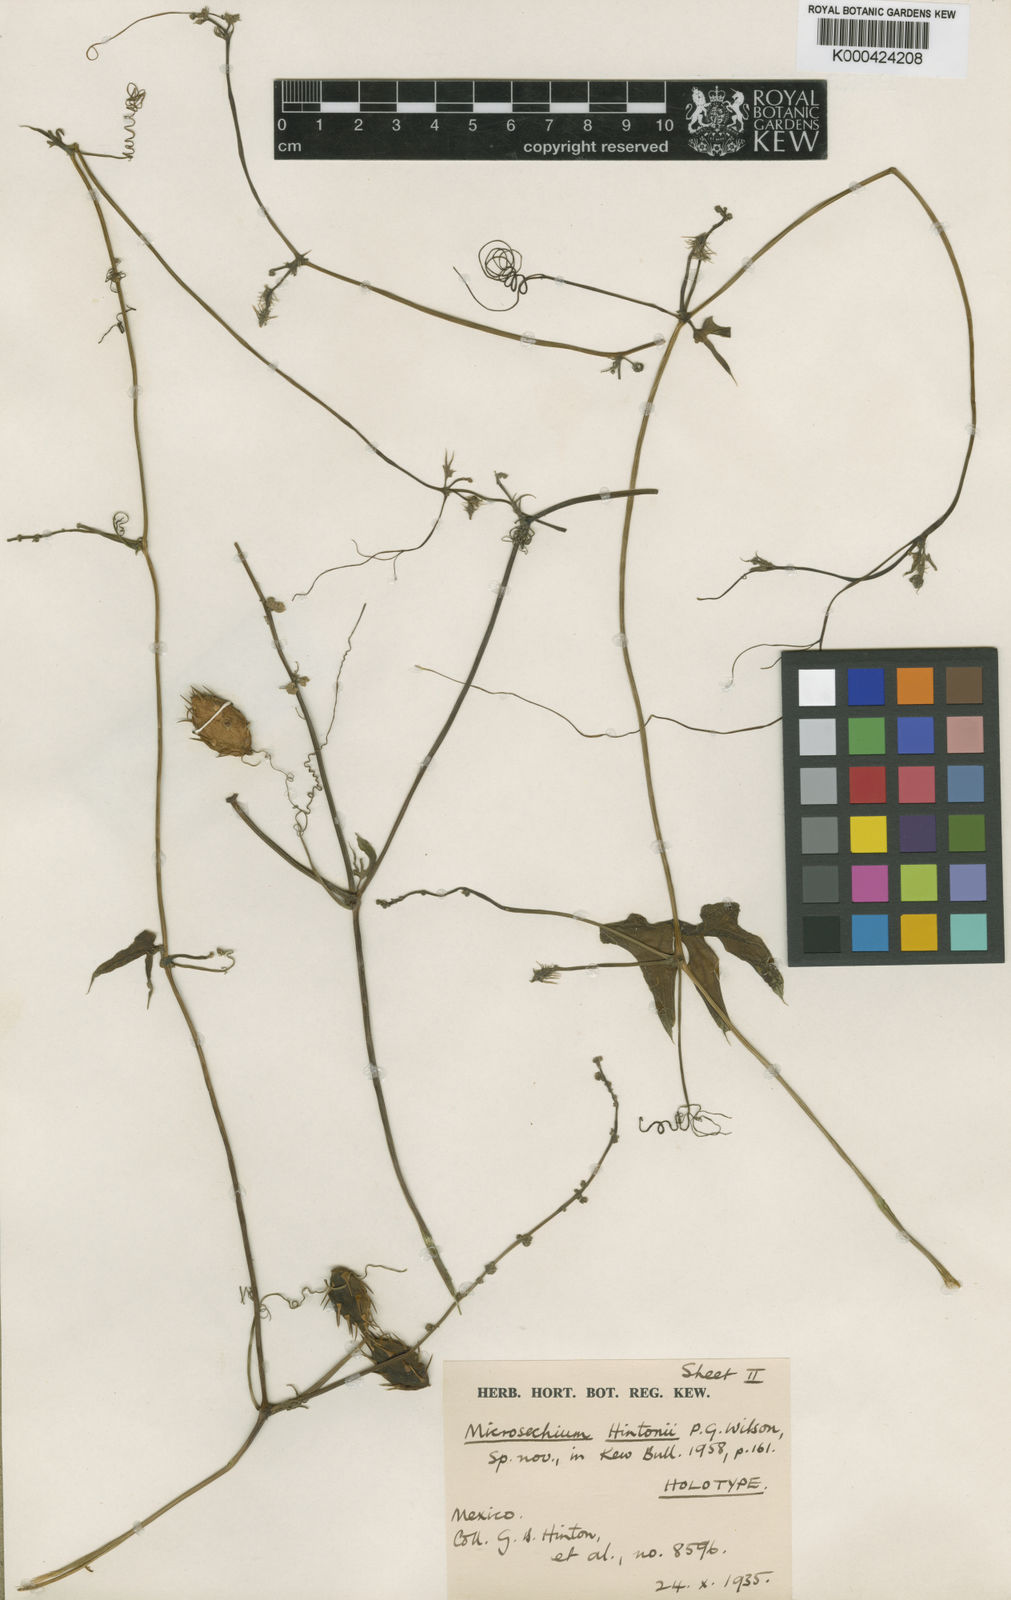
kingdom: Plantae
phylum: Tracheophyta
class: Magnoliopsida
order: Cucurbitales
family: Cucurbitaceae
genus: Sechium
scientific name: Sechium hintonii
